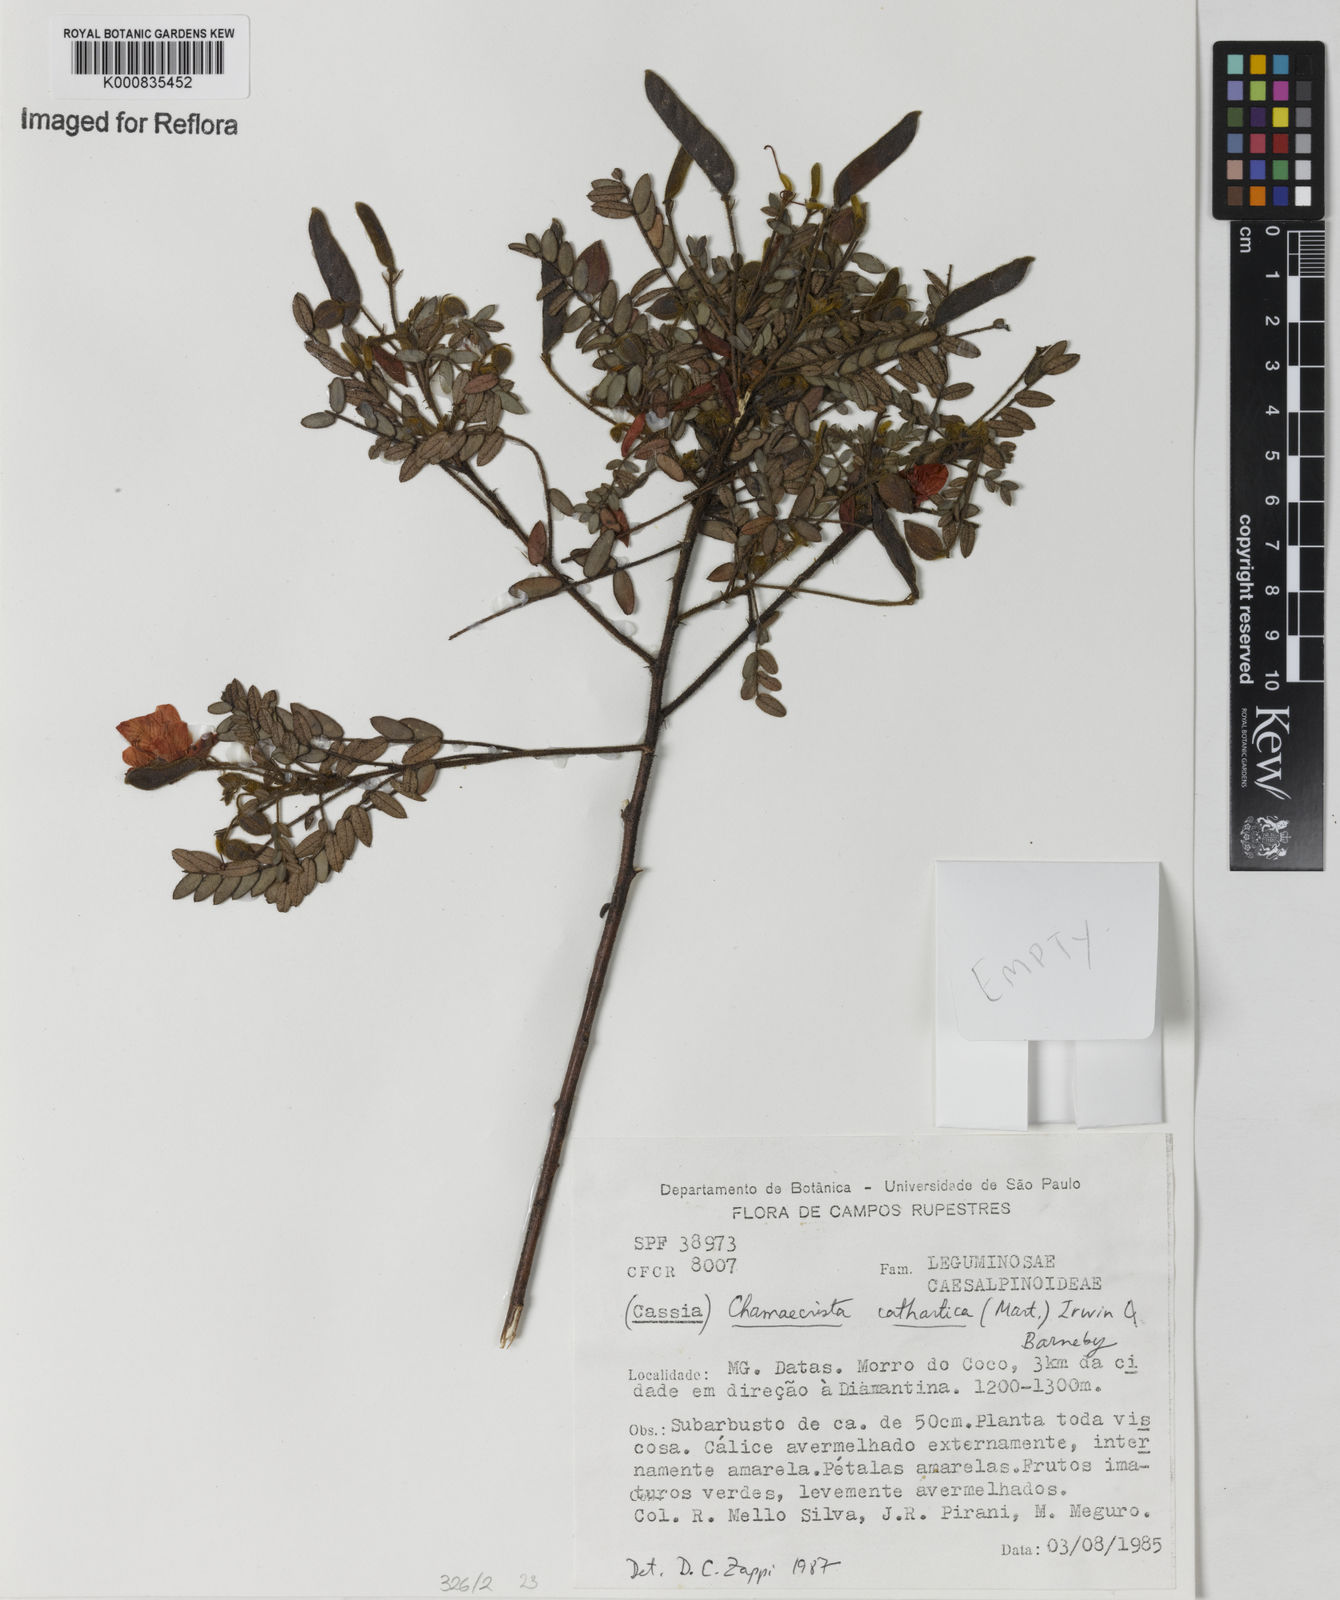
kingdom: Plantae
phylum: Tracheophyta
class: Magnoliopsida
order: Fabales
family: Fabaceae
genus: Chamaecrista
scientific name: Chamaecrista cathartica
